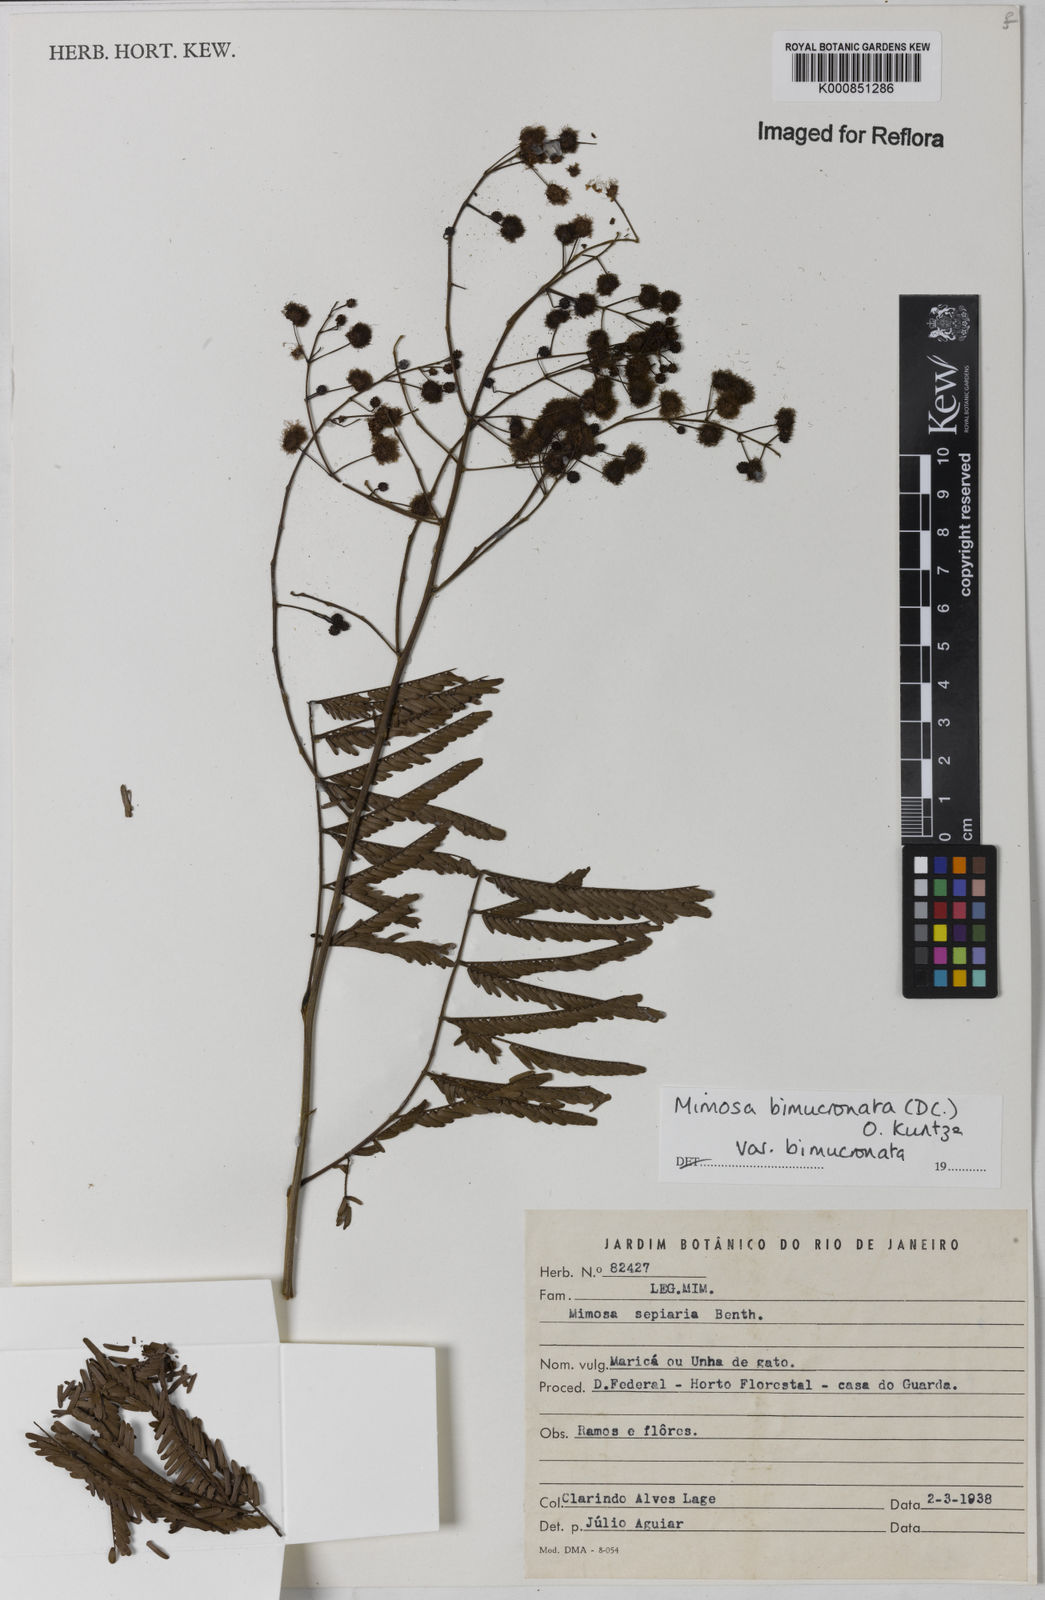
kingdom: Plantae
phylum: Tracheophyta
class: Magnoliopsida
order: Fabales
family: Fabaceae
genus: Mimosa
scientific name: Mimosa bimucronata
